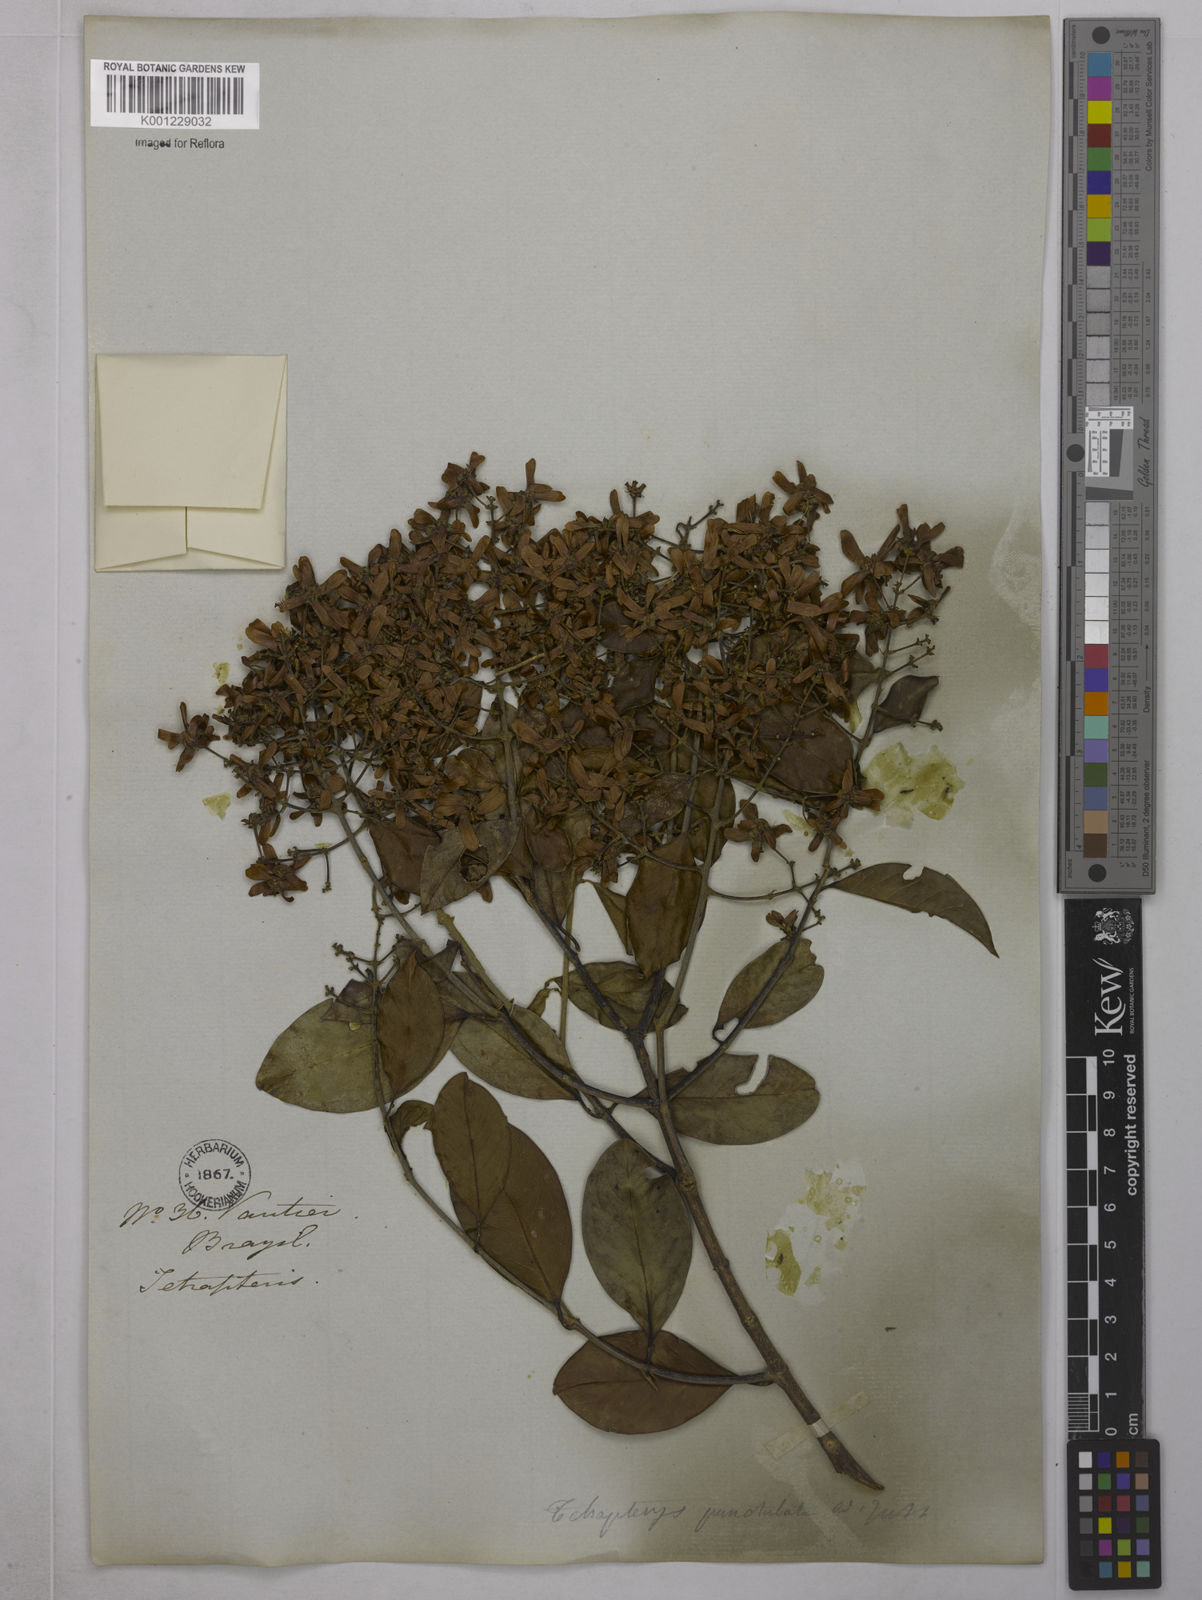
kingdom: Plantae
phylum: Tracheophyta
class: Magnoliopsida
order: Malpighiales
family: Malpighiaceae
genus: Niedenzuella
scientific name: Niedenzuella acutifolia
